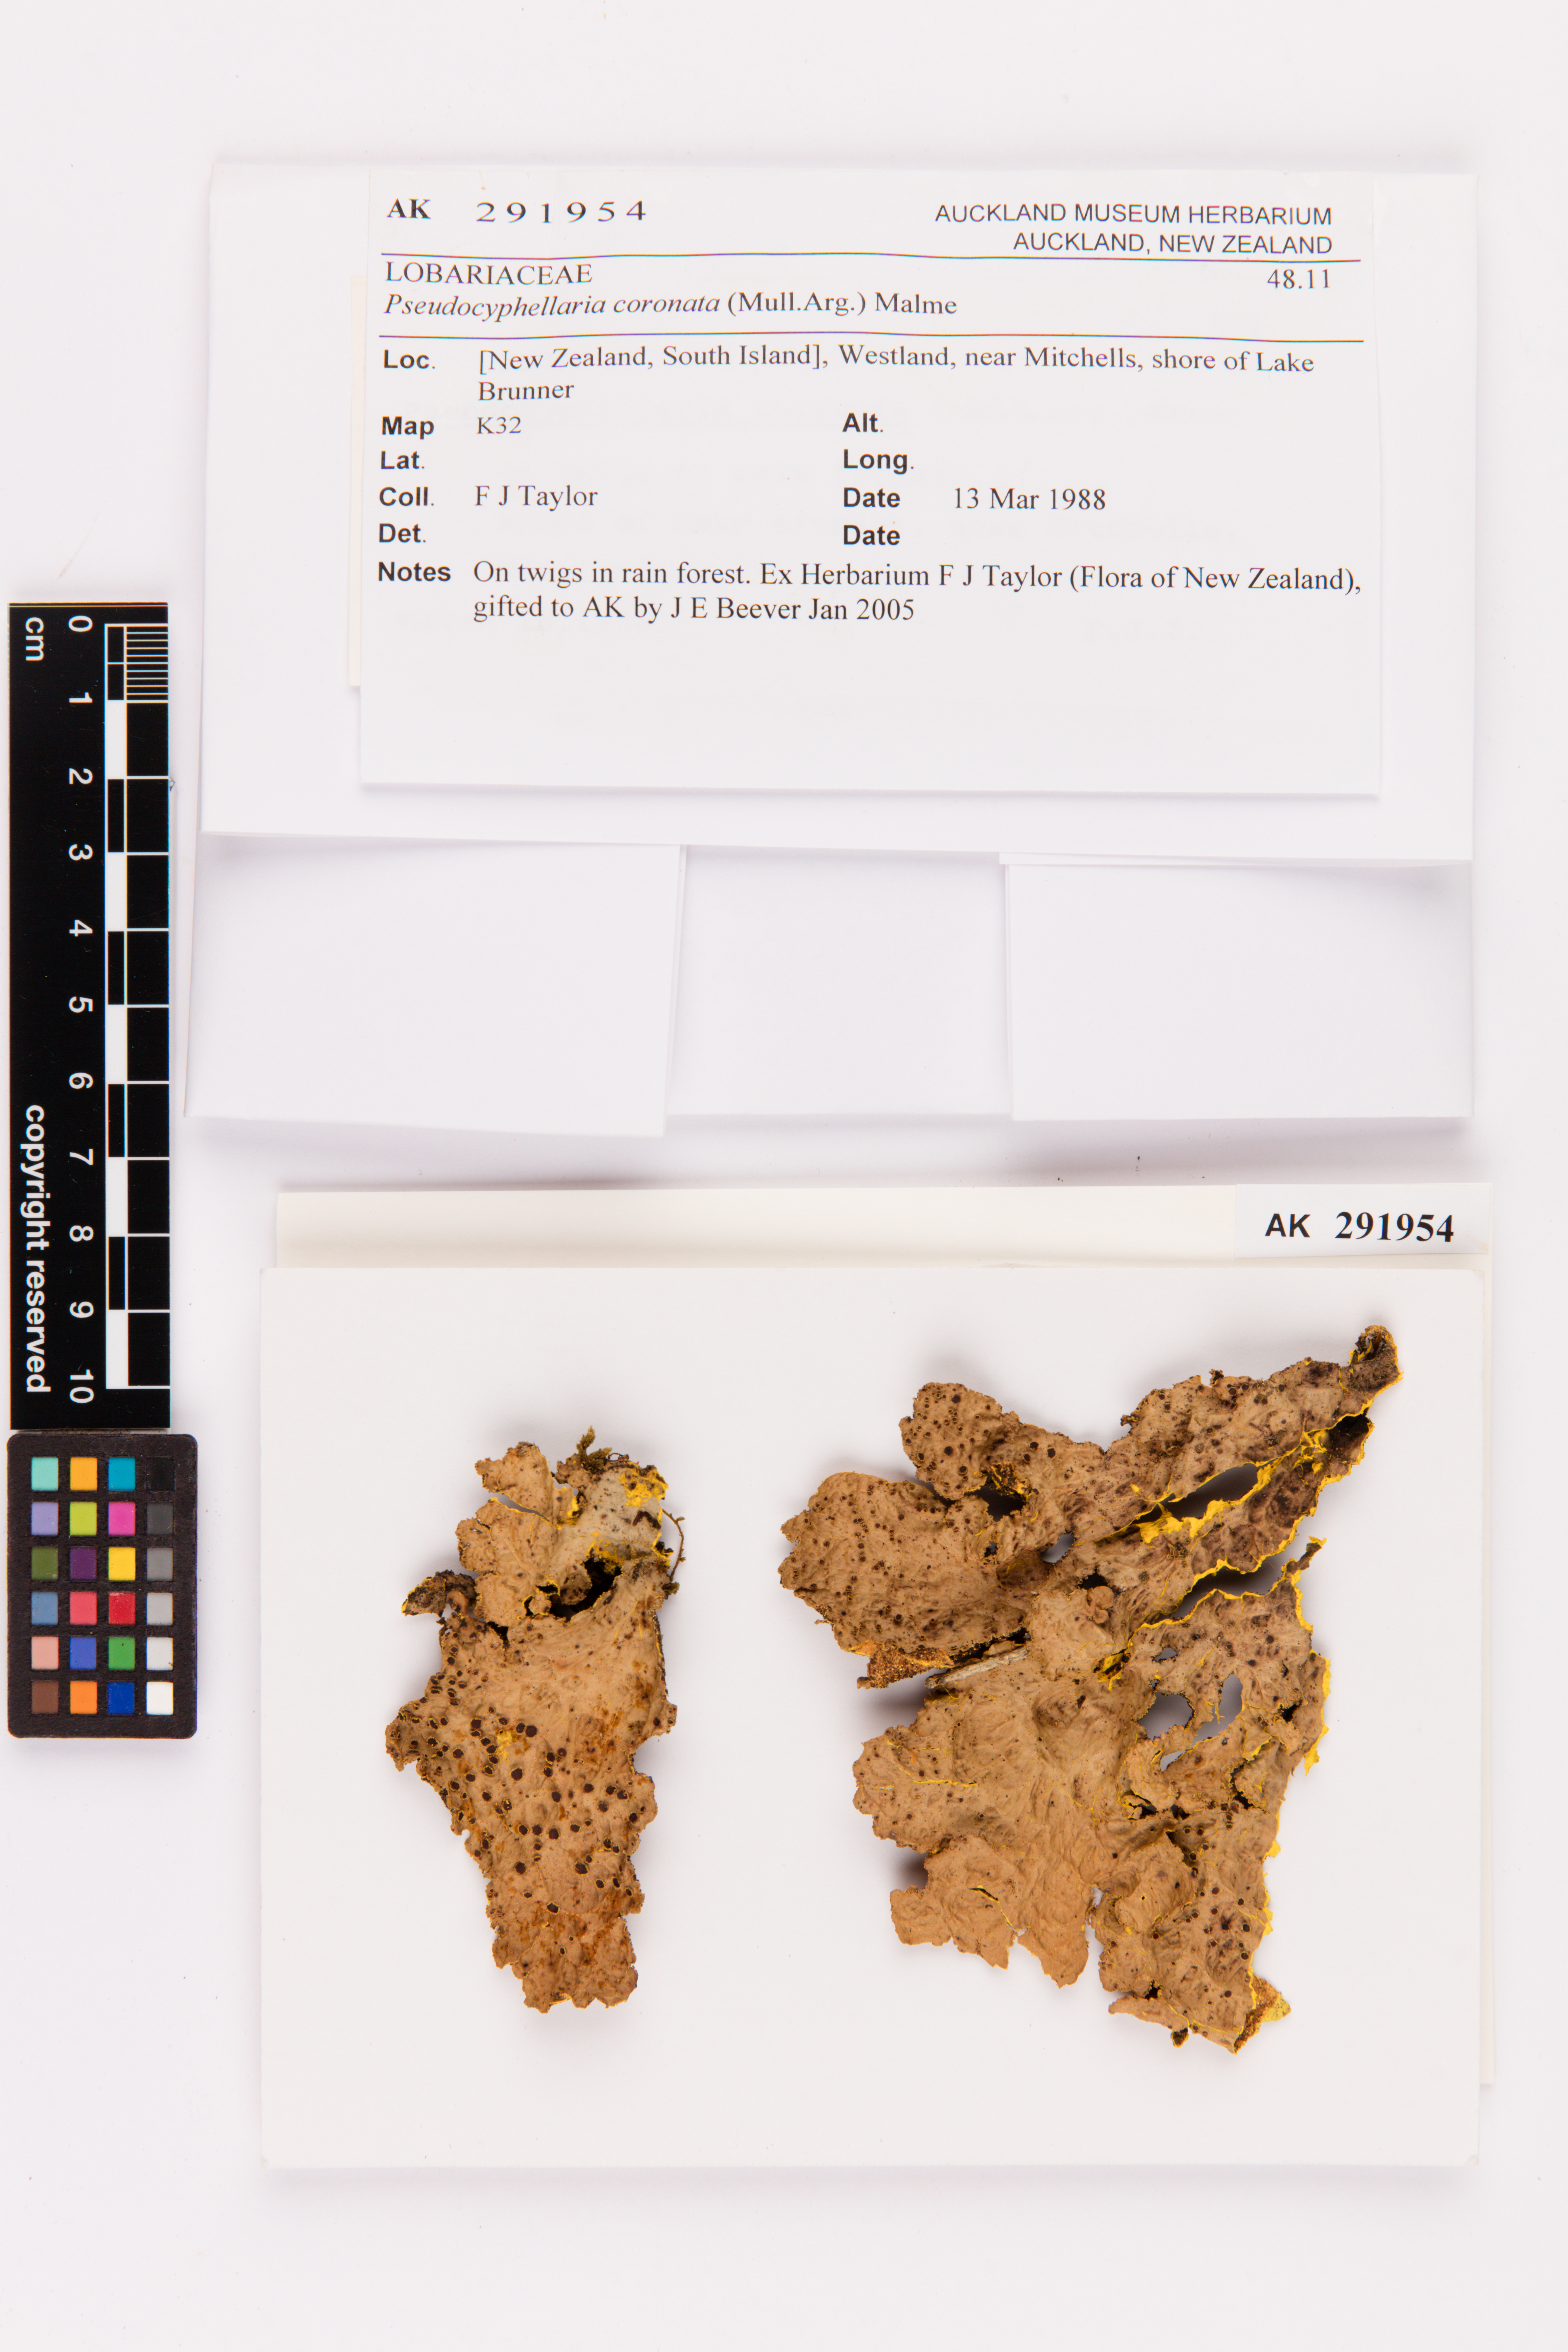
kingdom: Fungi
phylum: Ascomycota
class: Lecanoromycetes
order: Peltigerales
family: Lobariaceae
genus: Yarrumia
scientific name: Yarrumia coronata
